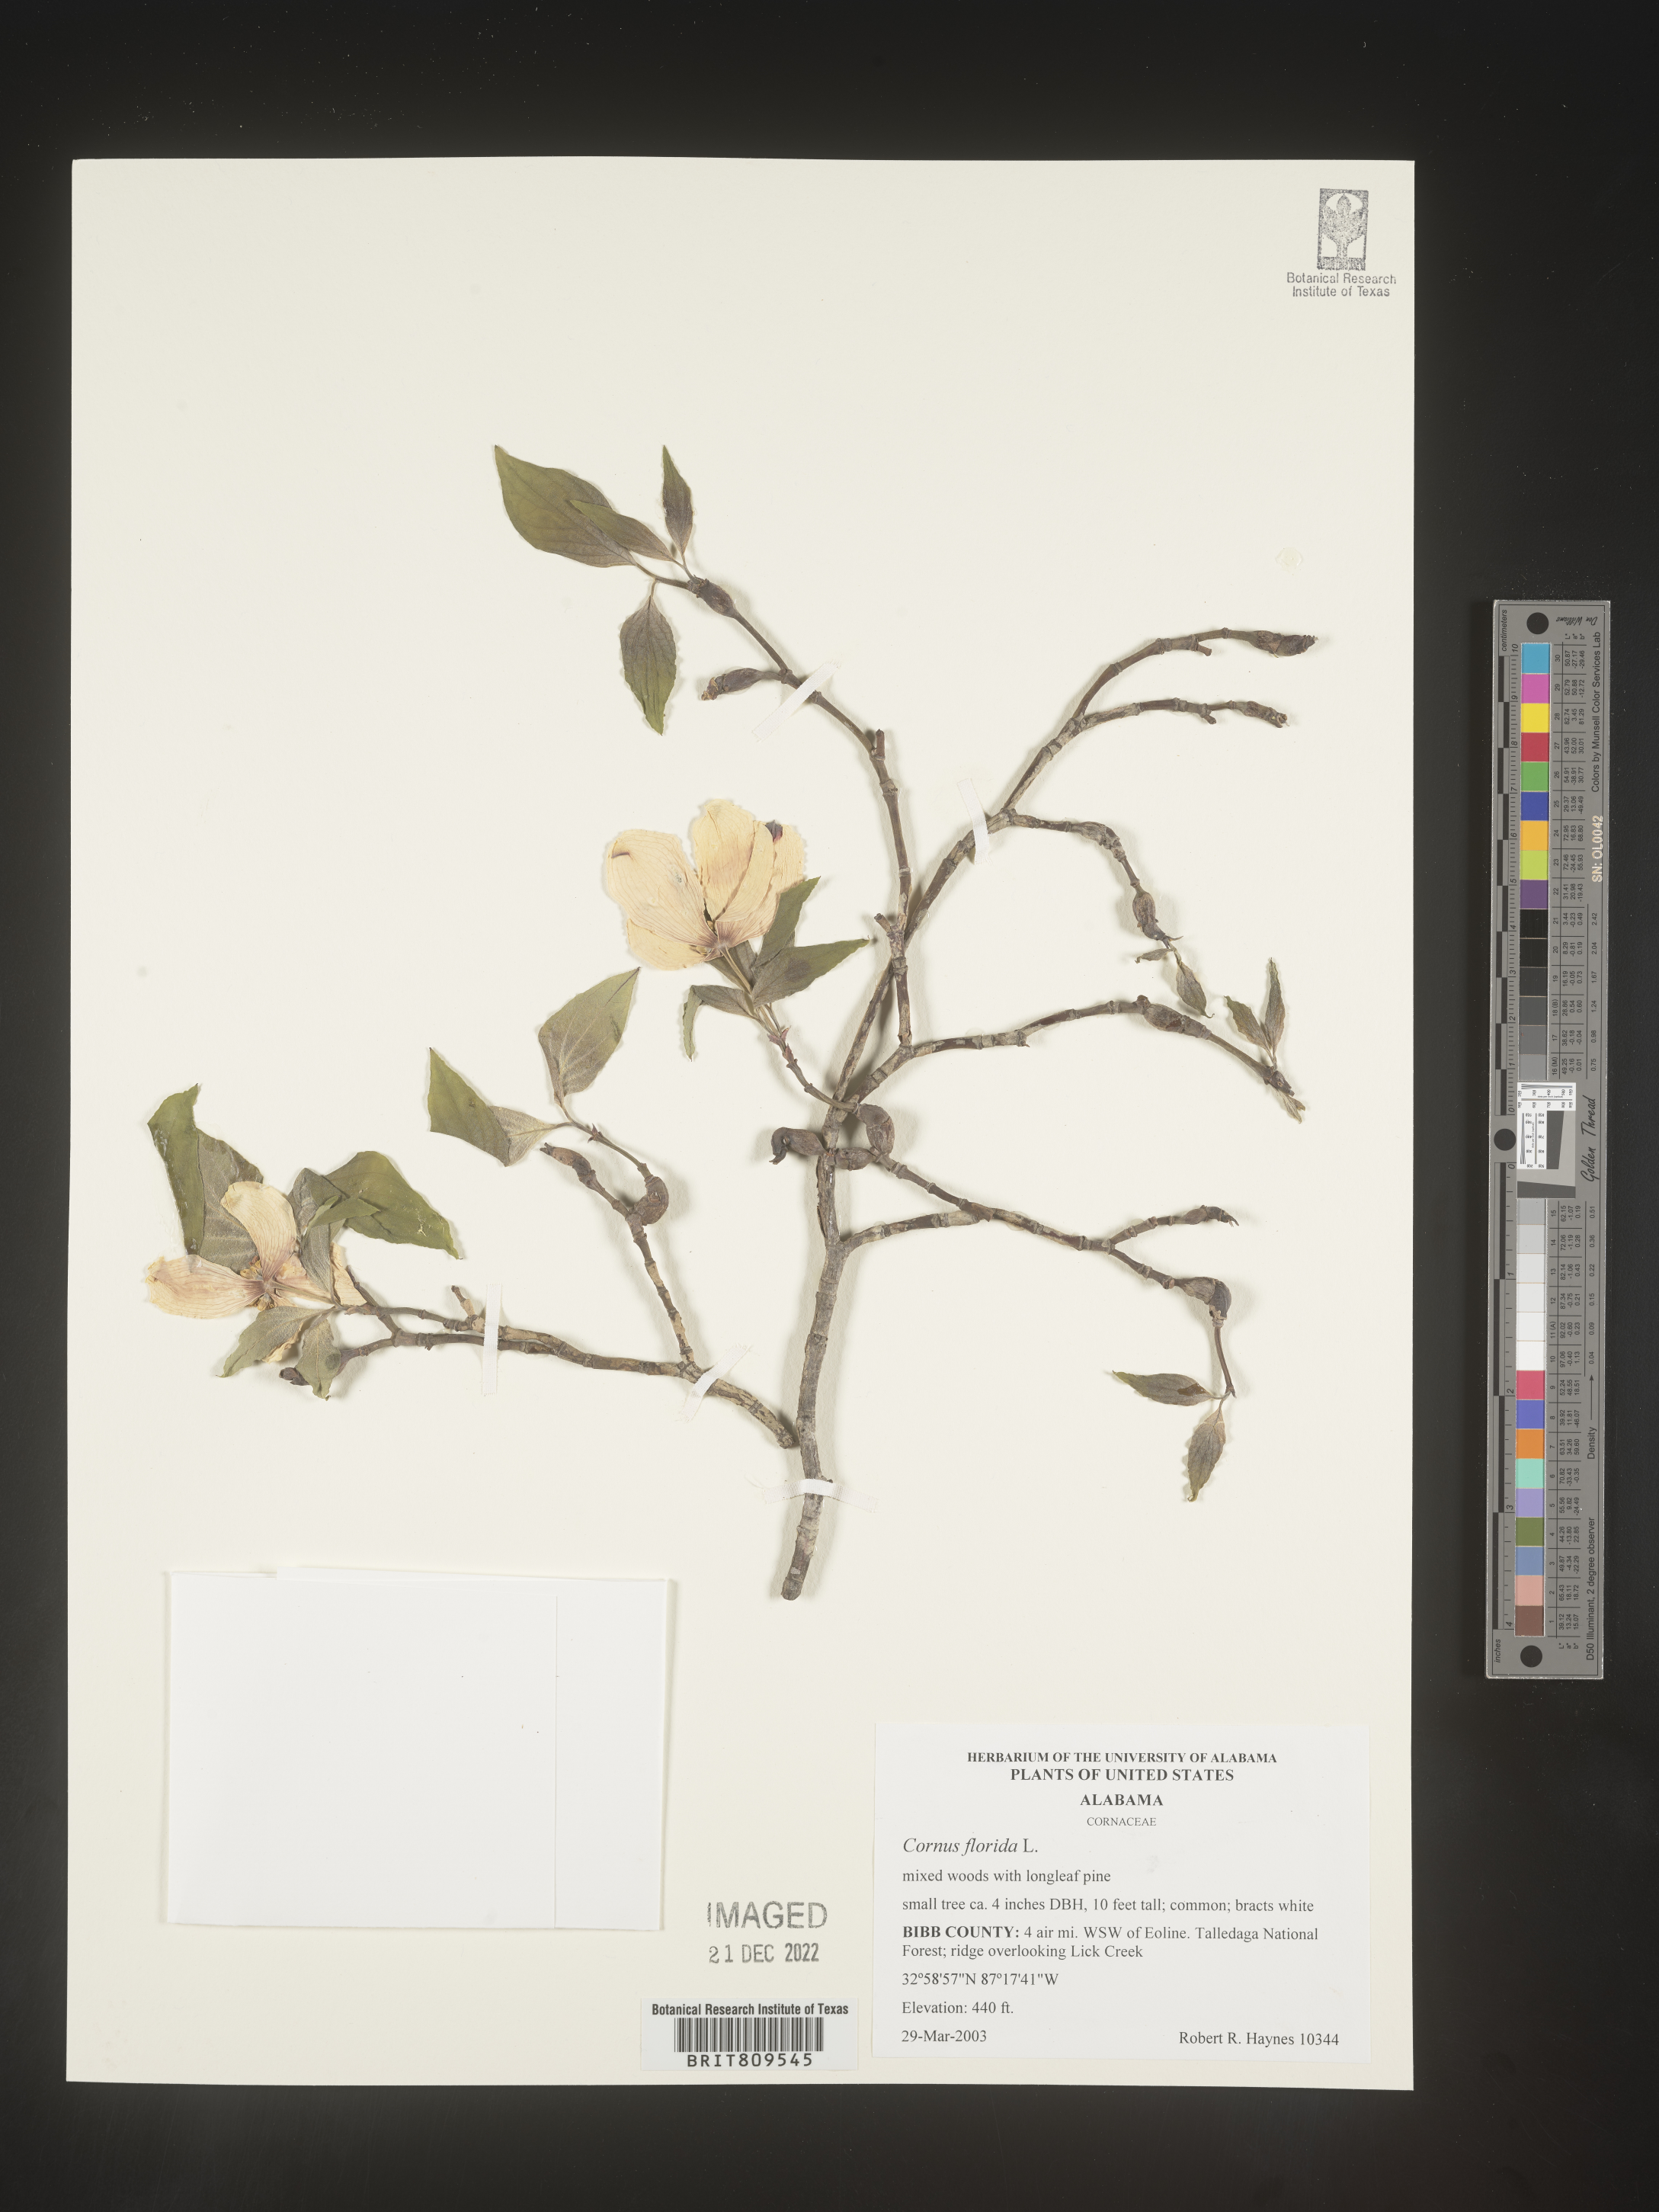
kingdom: Plantae
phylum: Tracheophyta
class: Magnoliopsida
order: Cornales
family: Cornaceae
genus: Cornus
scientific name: Cornus florida
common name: Flowering dogwood
